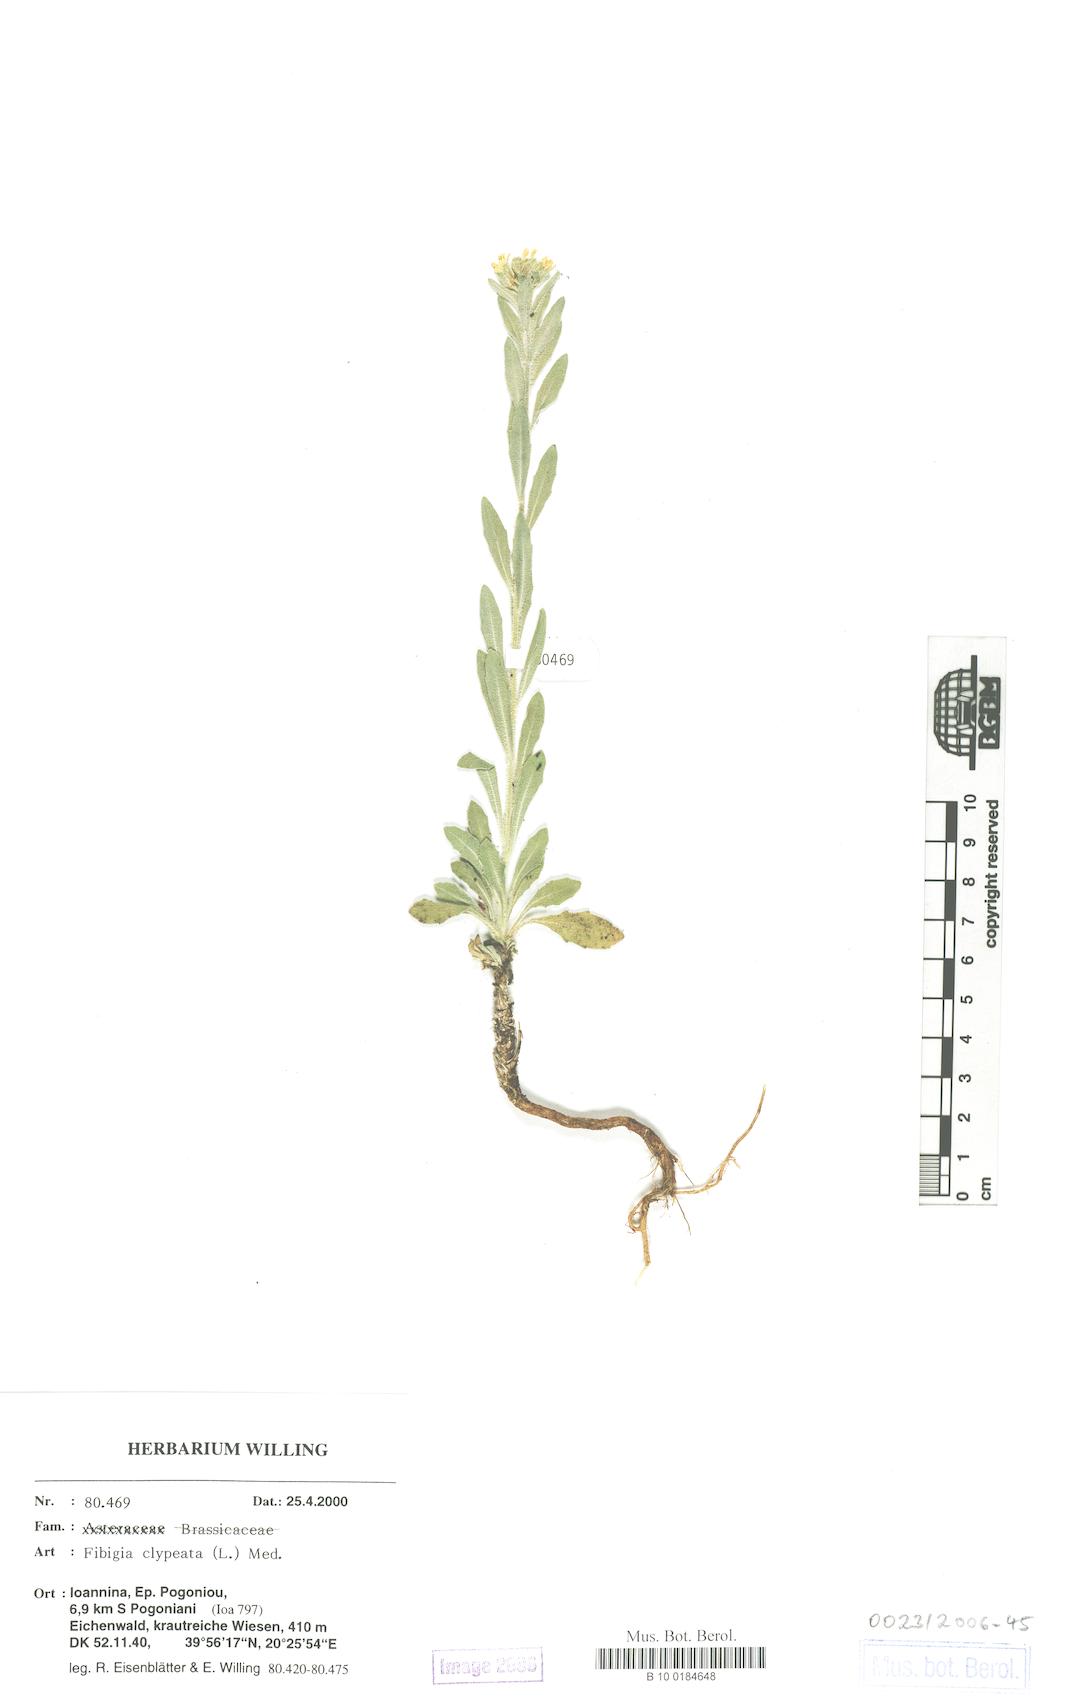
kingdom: Plantae
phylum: Tracheophyta
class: Magnoliopsida
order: Brassicales
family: Brassicaceae
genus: Fibigia
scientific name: Fibigia clypeata
